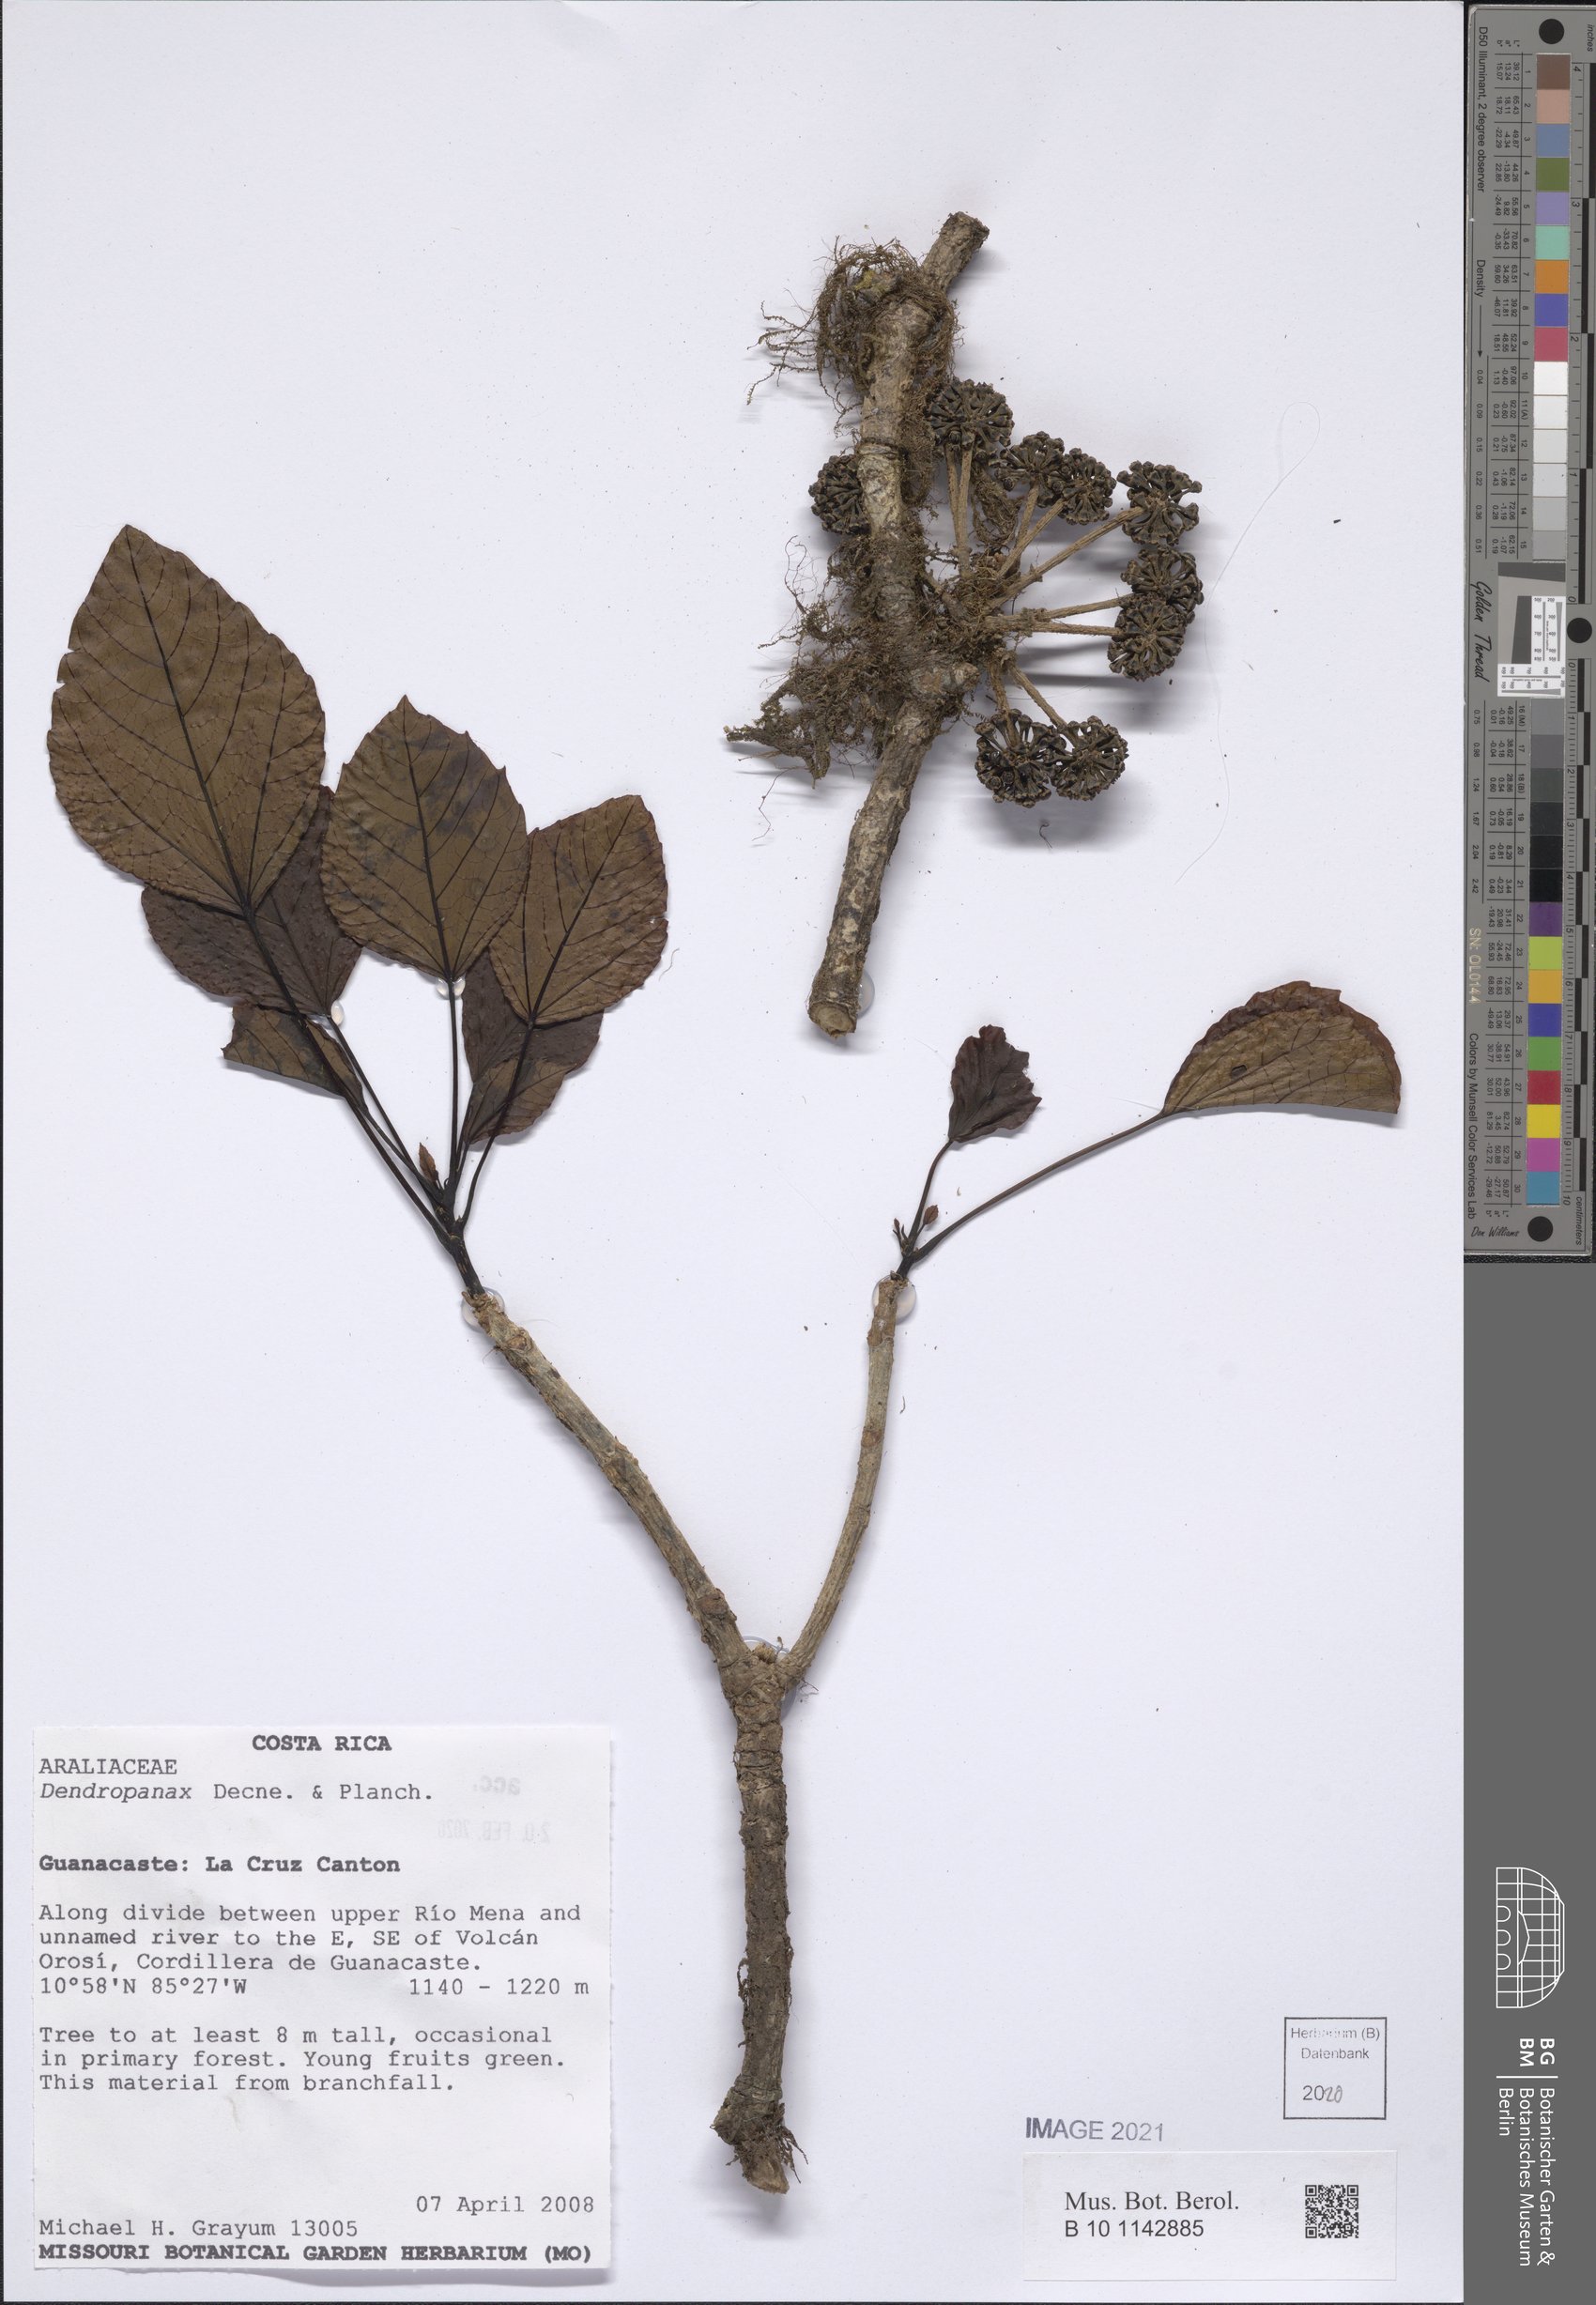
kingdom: Plantae
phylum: Tracheophyta
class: Magnoliopsida
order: Apiales
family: Araliaceae
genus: Dendropanax
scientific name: Dendropanax
